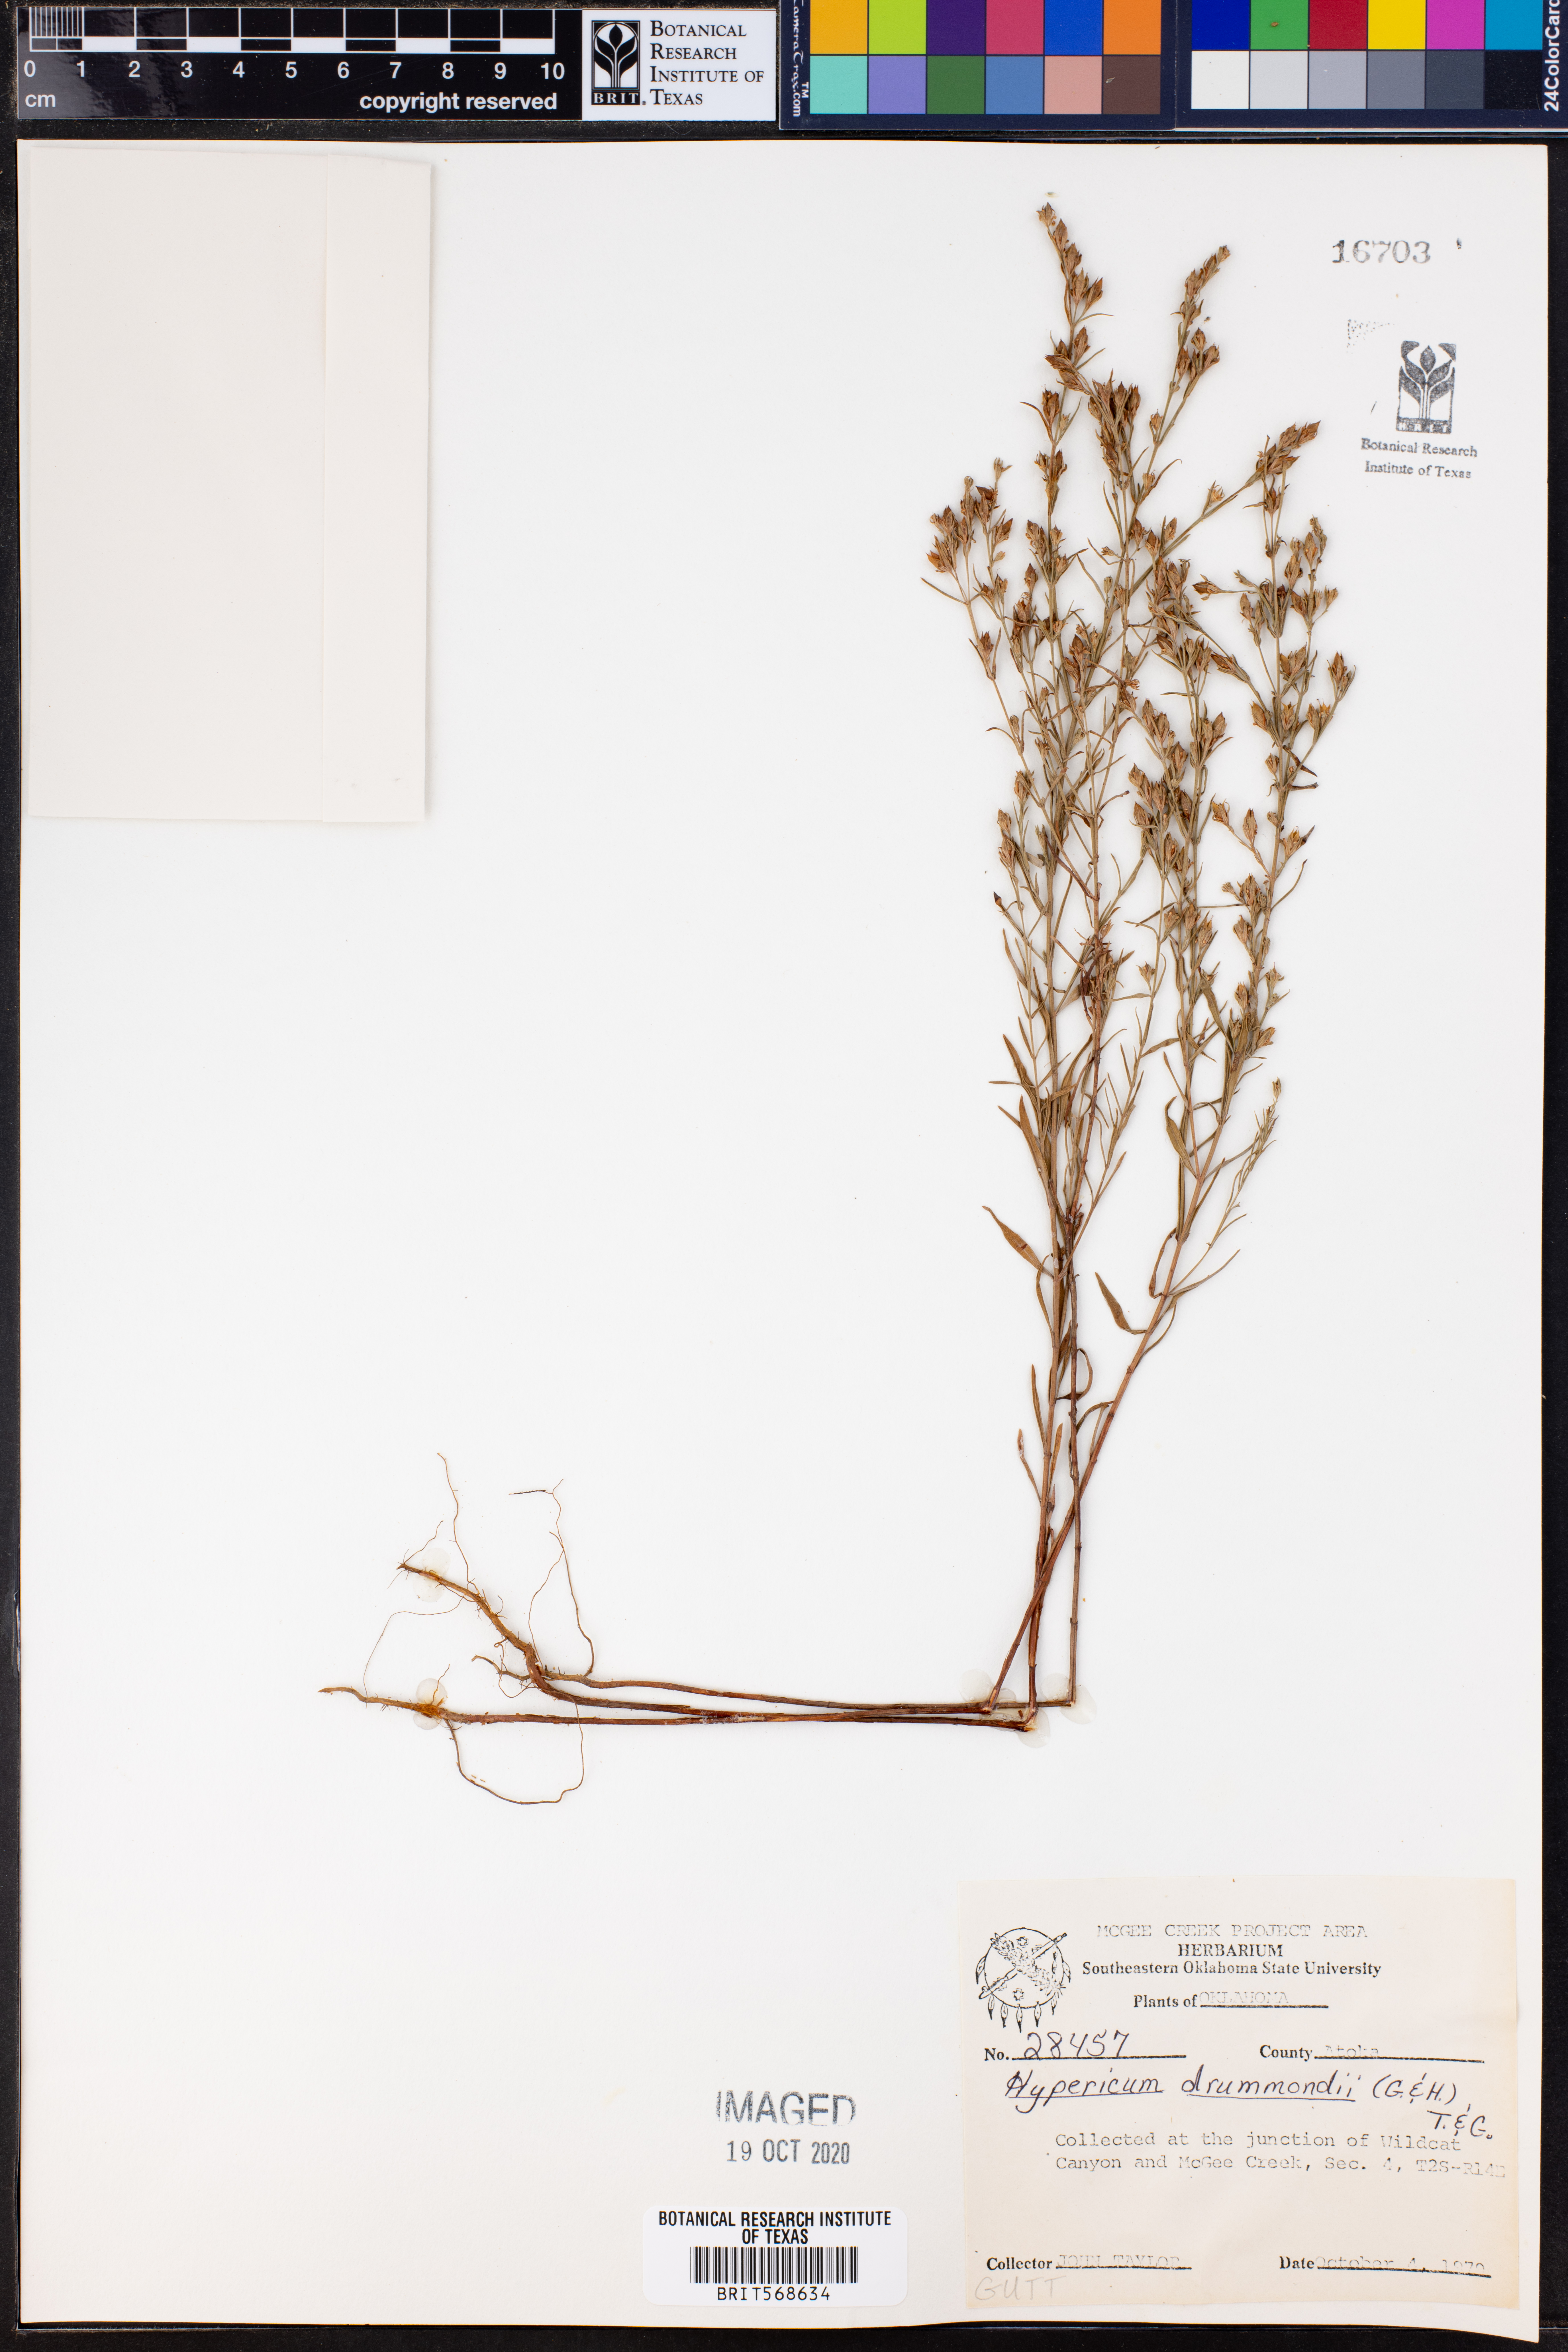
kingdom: Plantae
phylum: Tracheophyta
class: Magnoliopsida
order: Malpighiales
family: Hypericaceae
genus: Hypericum
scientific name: Hypericum drummondii
